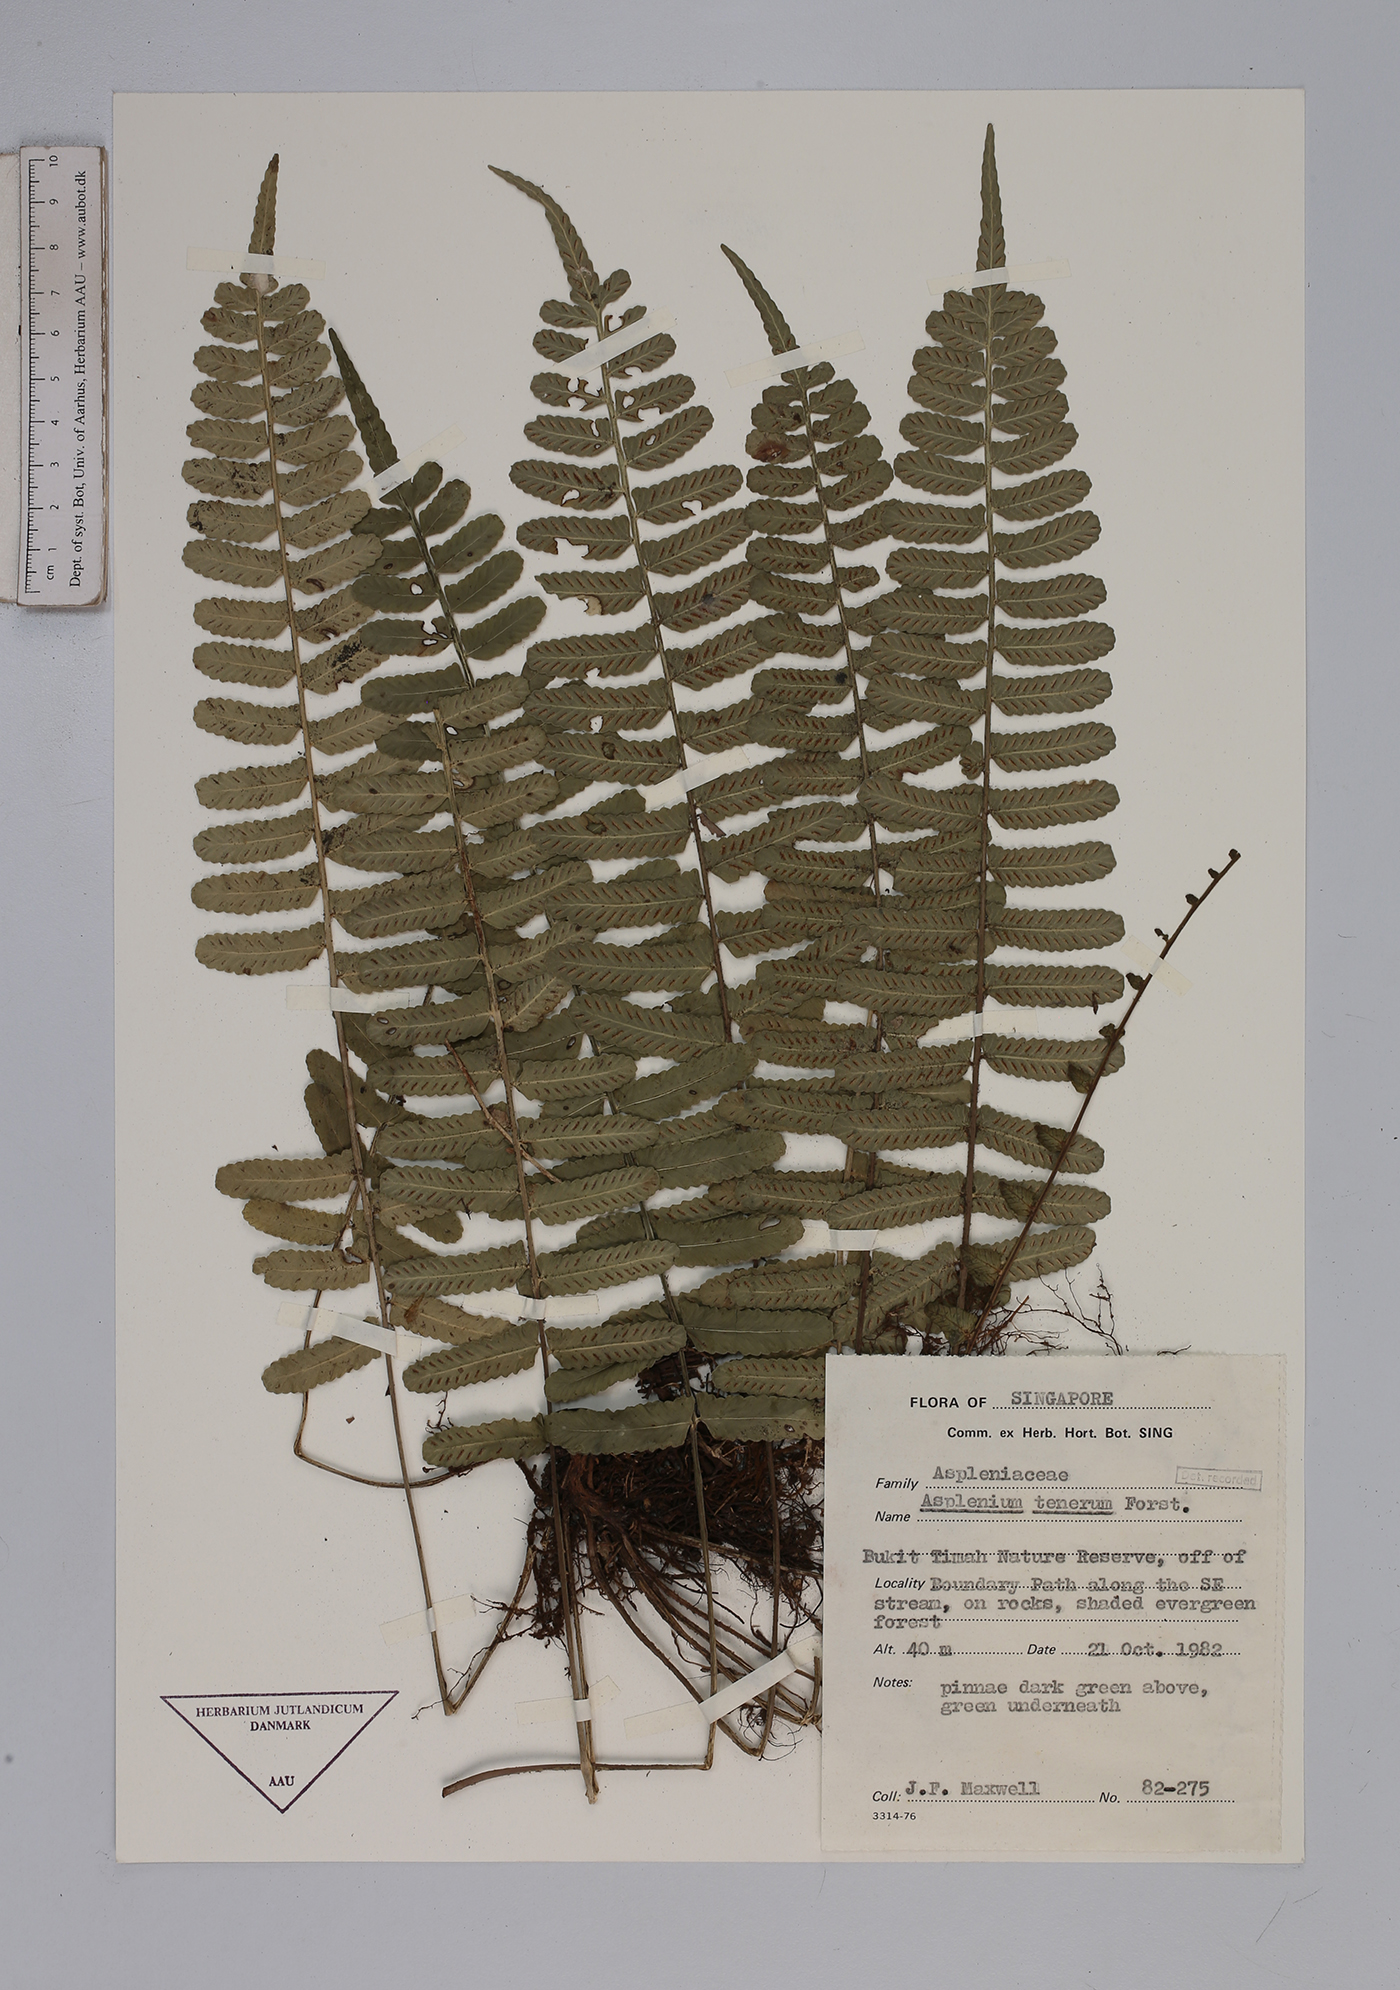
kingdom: Plantae
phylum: Tracheophyta
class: Polypodiopsida
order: Polypodiales
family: Aspleniaceae
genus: Asplenium
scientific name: Asplenium tenerum
